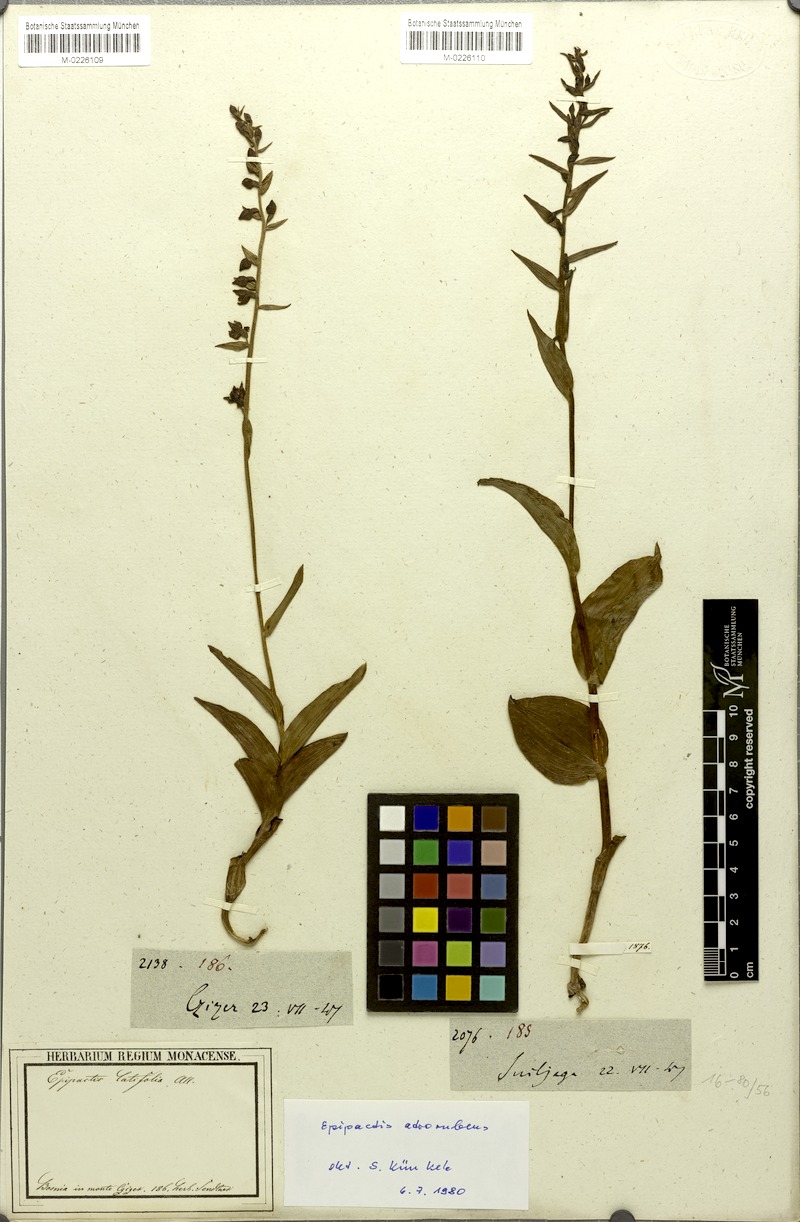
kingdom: Plantae
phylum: Tracheophyta
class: Liliopsida
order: Asparagales
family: Orchidaceae
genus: Epipactis
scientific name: Epipactis atrorubens
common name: Dark-red helleborine
